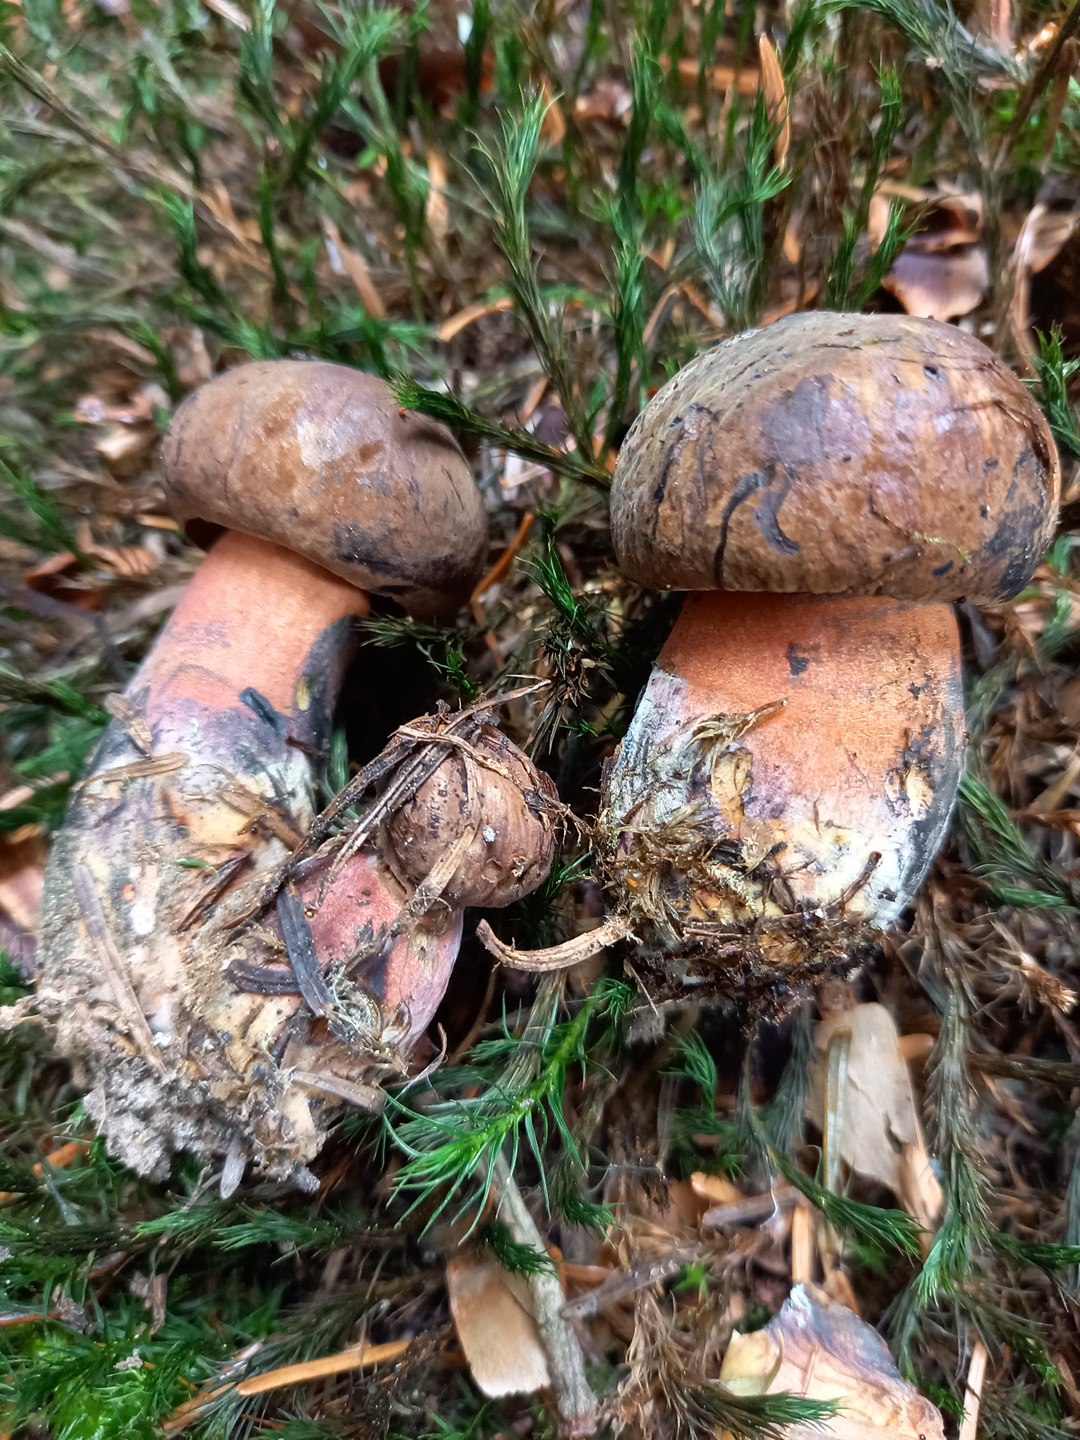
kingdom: Fungi
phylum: Basidiomycota
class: Agaricomycetes
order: Boletales
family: Boletaceae
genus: Neoboletus
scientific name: Neoboletus erythropus
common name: punktstokket indigorørhat
